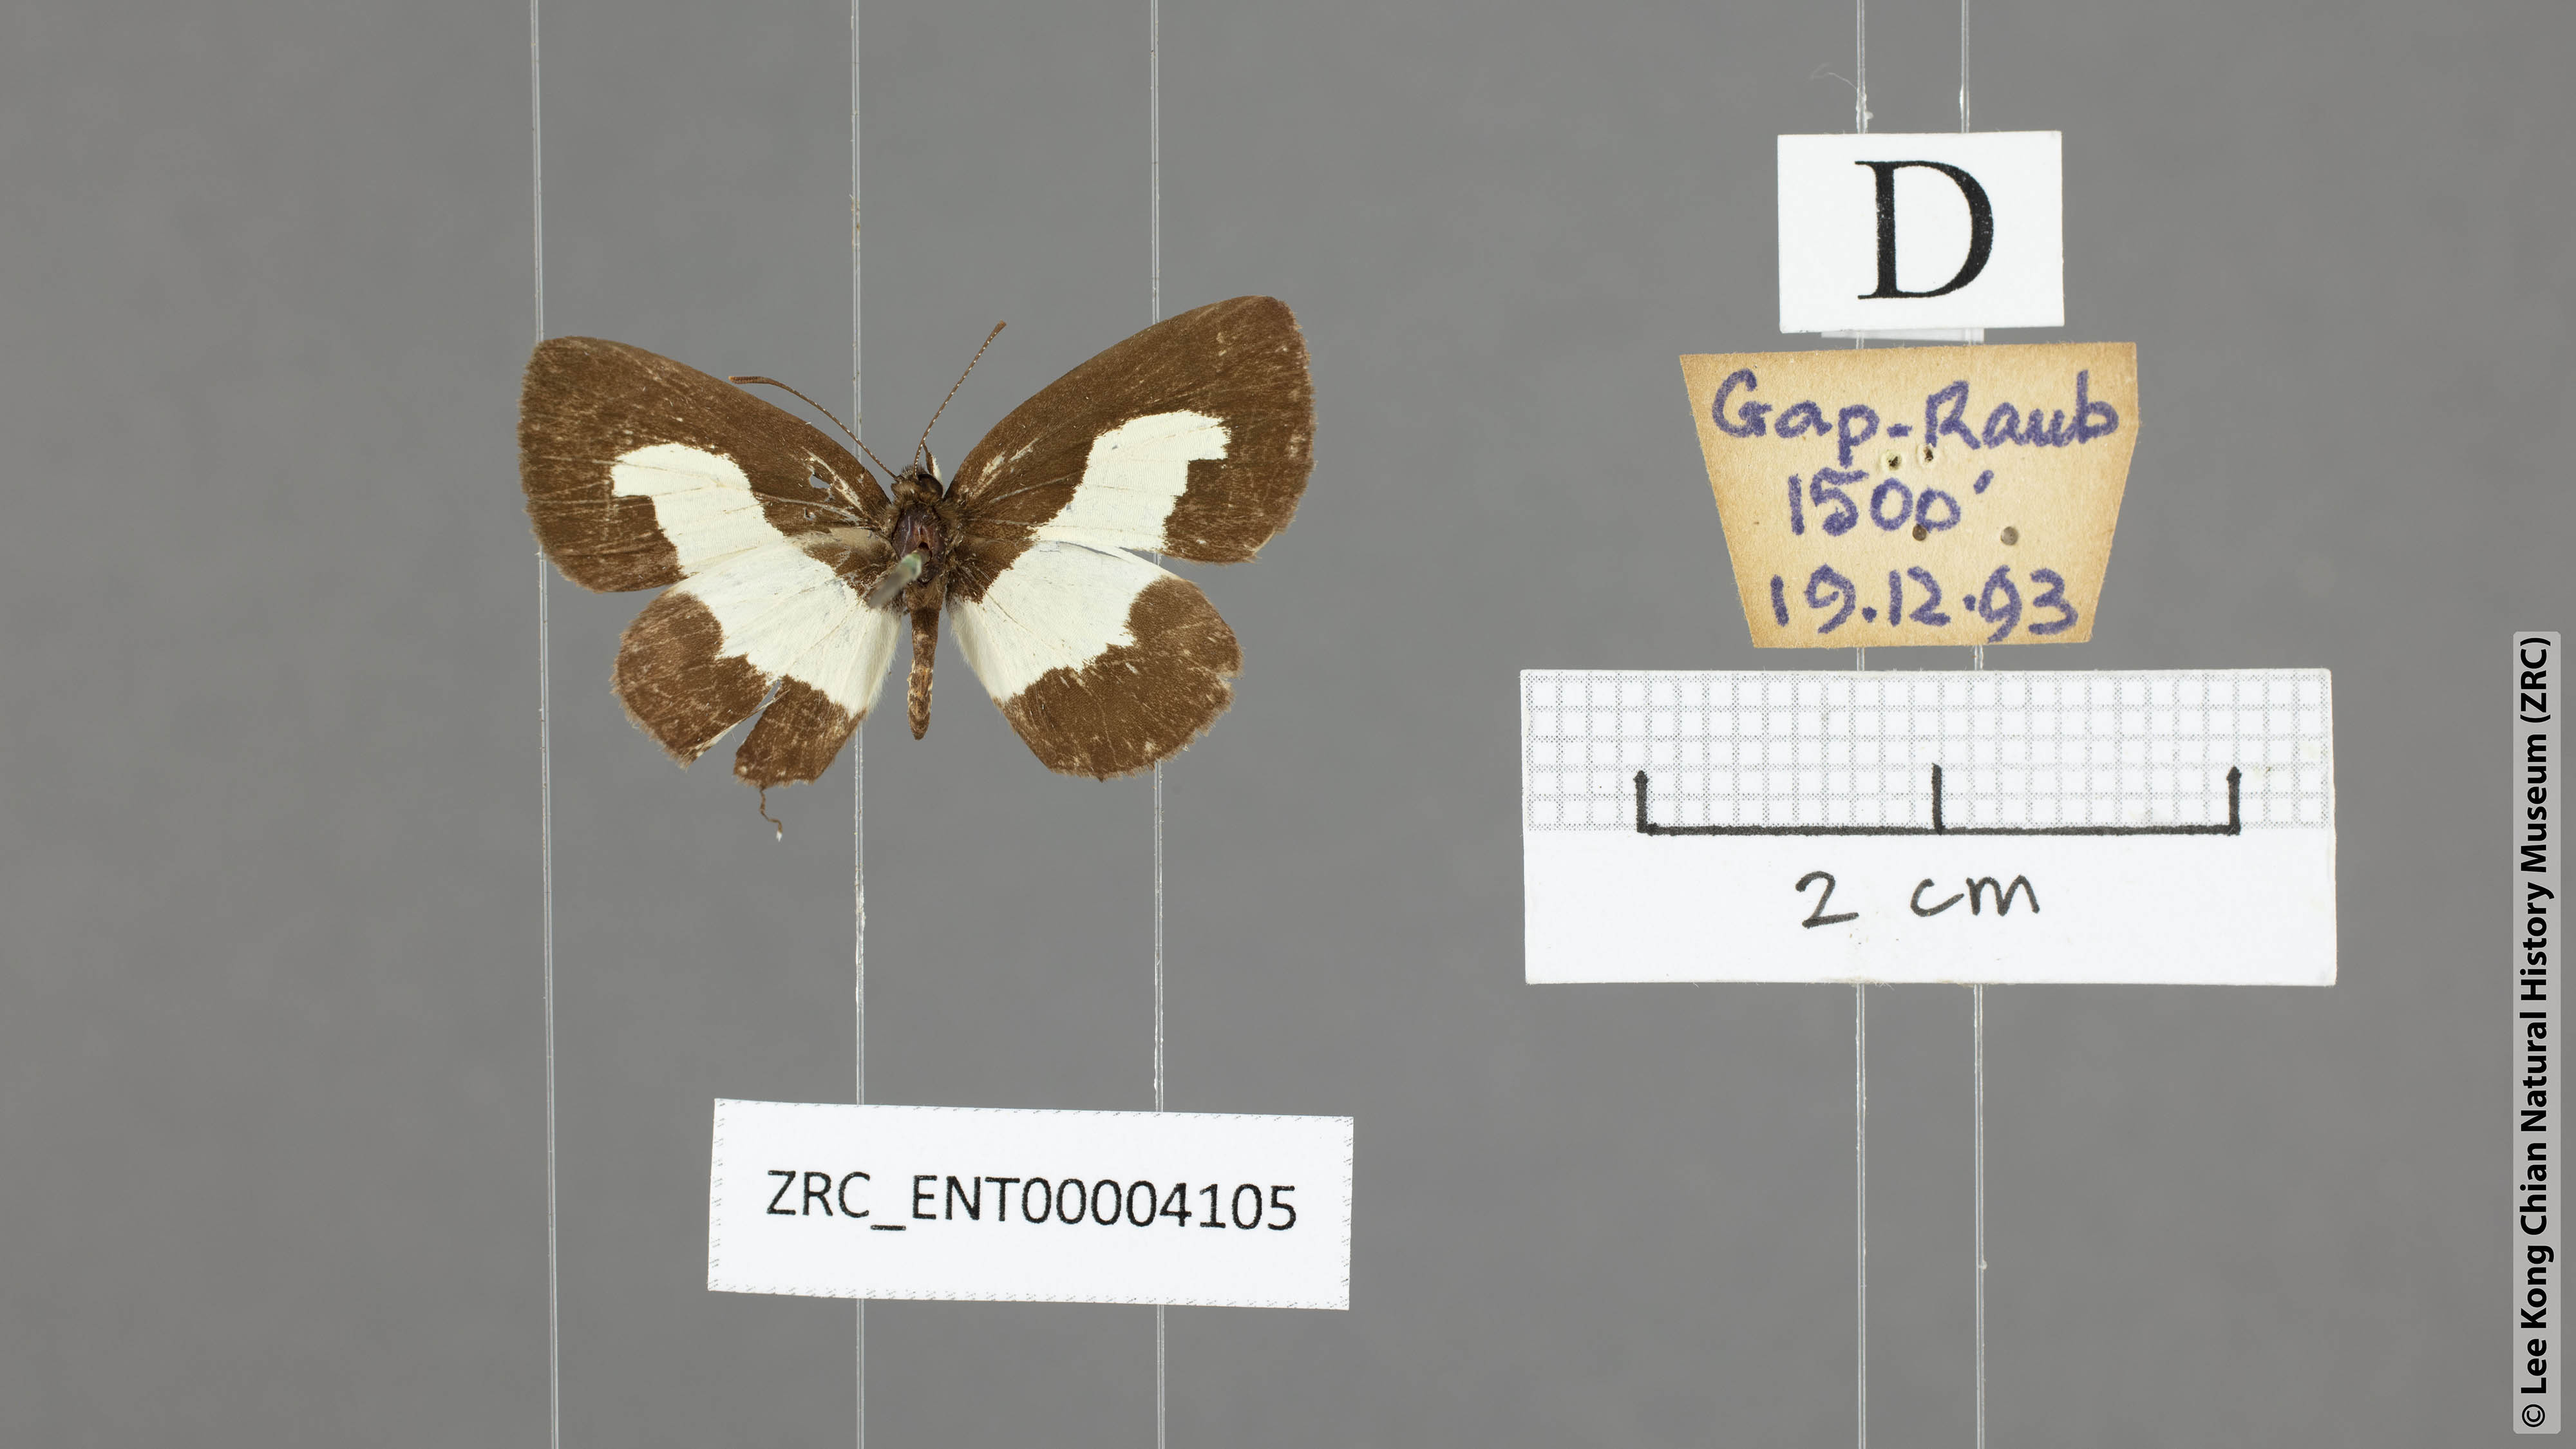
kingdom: Animalia
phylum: Arthropoda
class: Insecta
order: Lepidoptera
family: Lycaenidae
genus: Caleta
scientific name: Caleta roxus
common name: Straight pierrot
